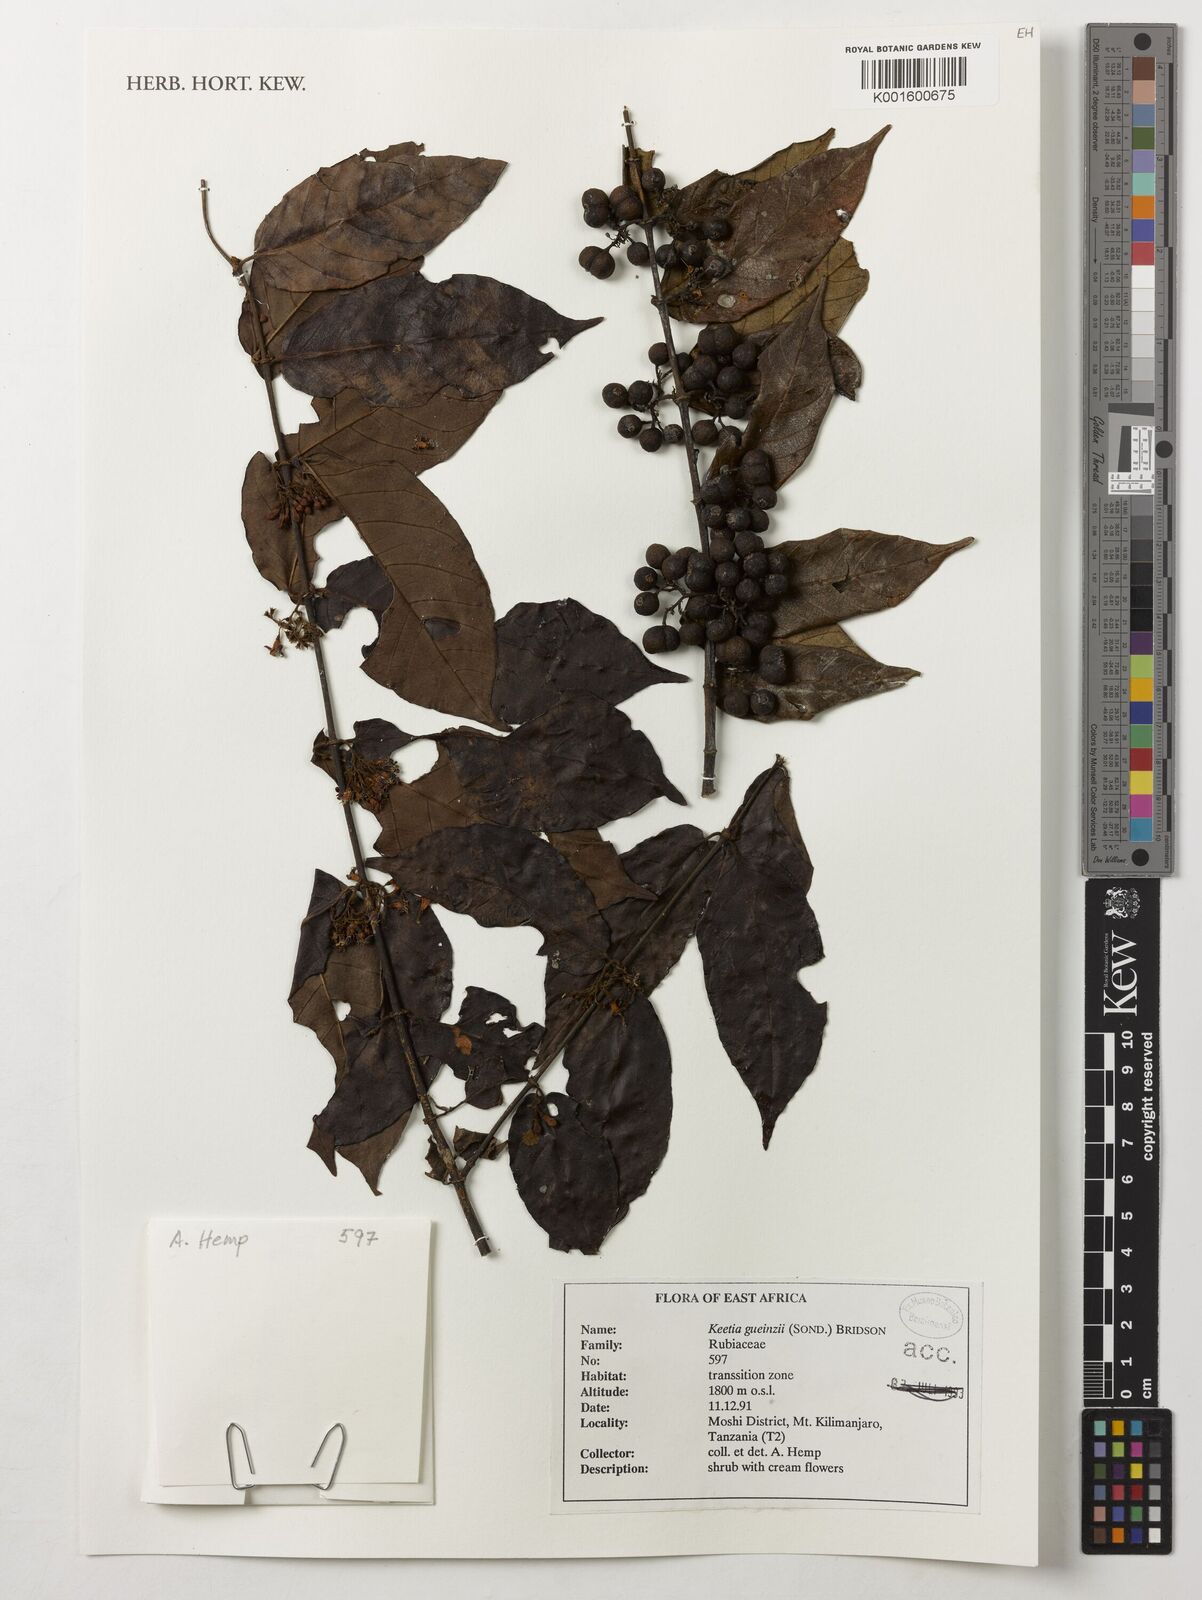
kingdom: Plantae
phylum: Tracheophyta
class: Magnoliopsida
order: Gentianales
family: Rubiaceae
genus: Keetia
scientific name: Keetia gueinzii
